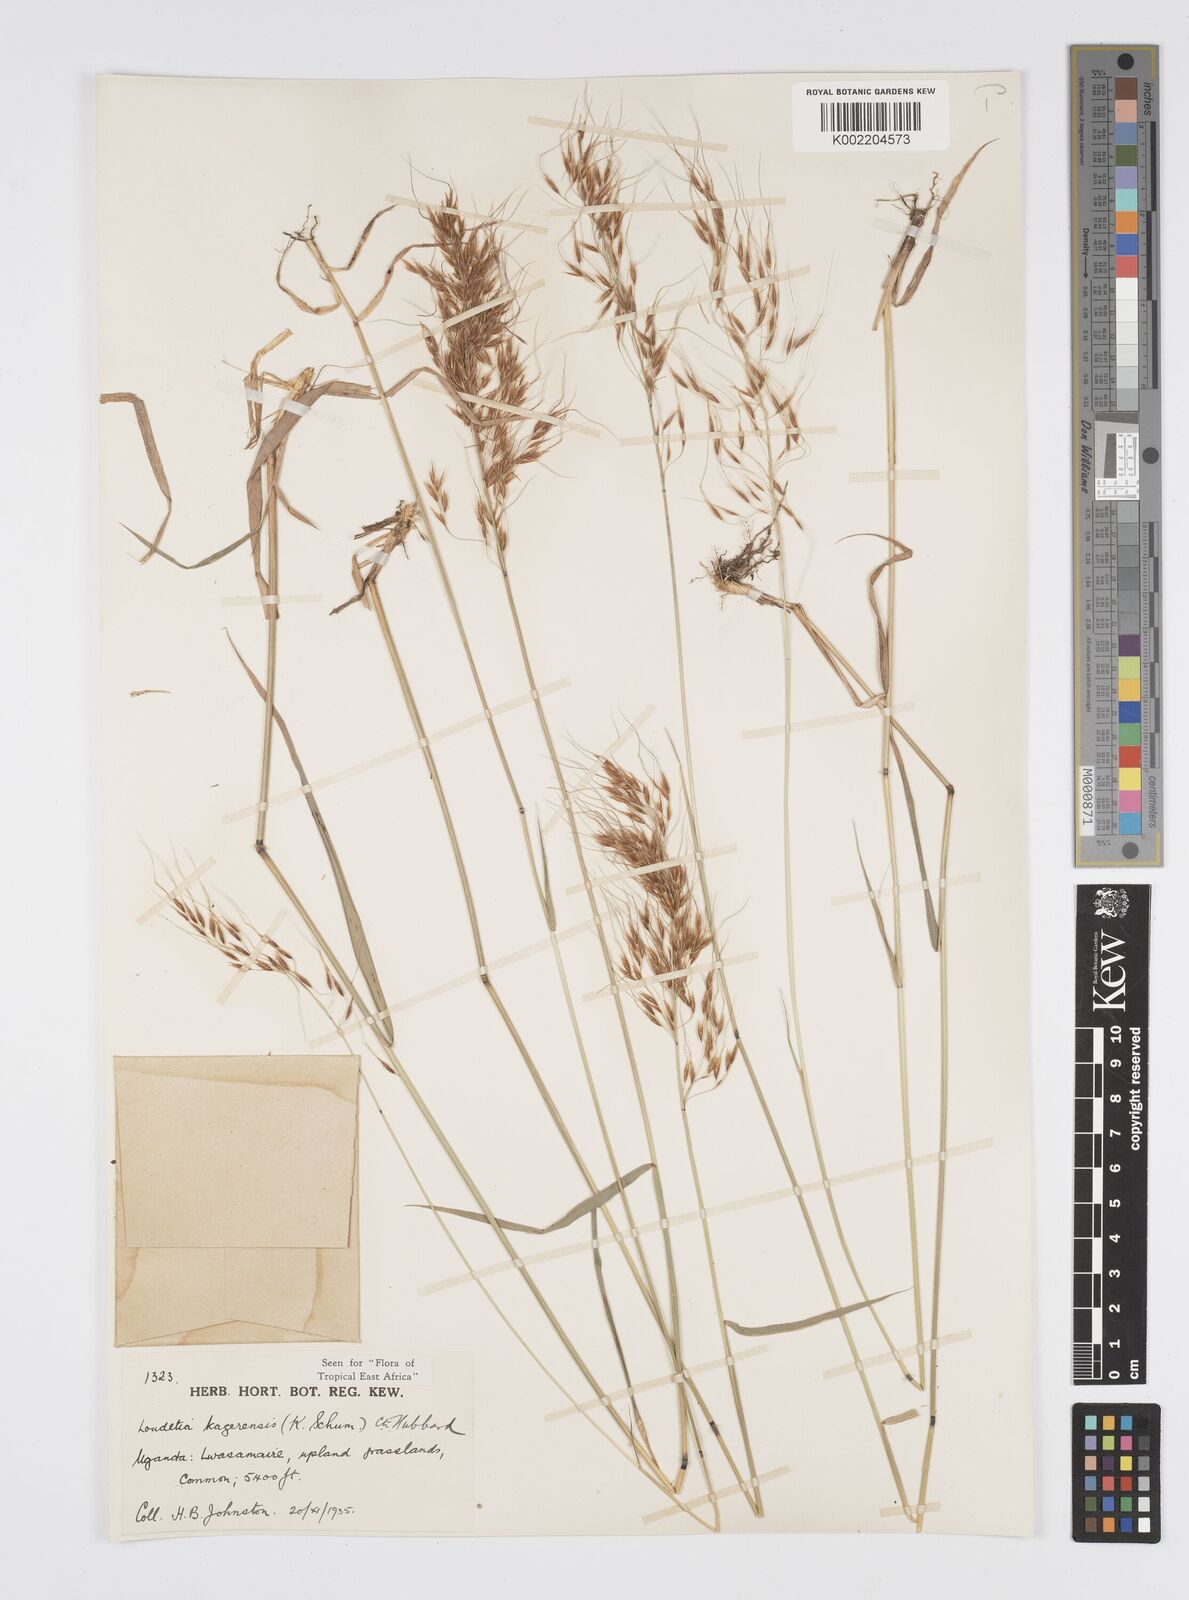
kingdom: Plantae
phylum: Tracheophyta
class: Liliopsida
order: Poales
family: Poaceae
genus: Loudetia
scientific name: Loudetia kagerensis
